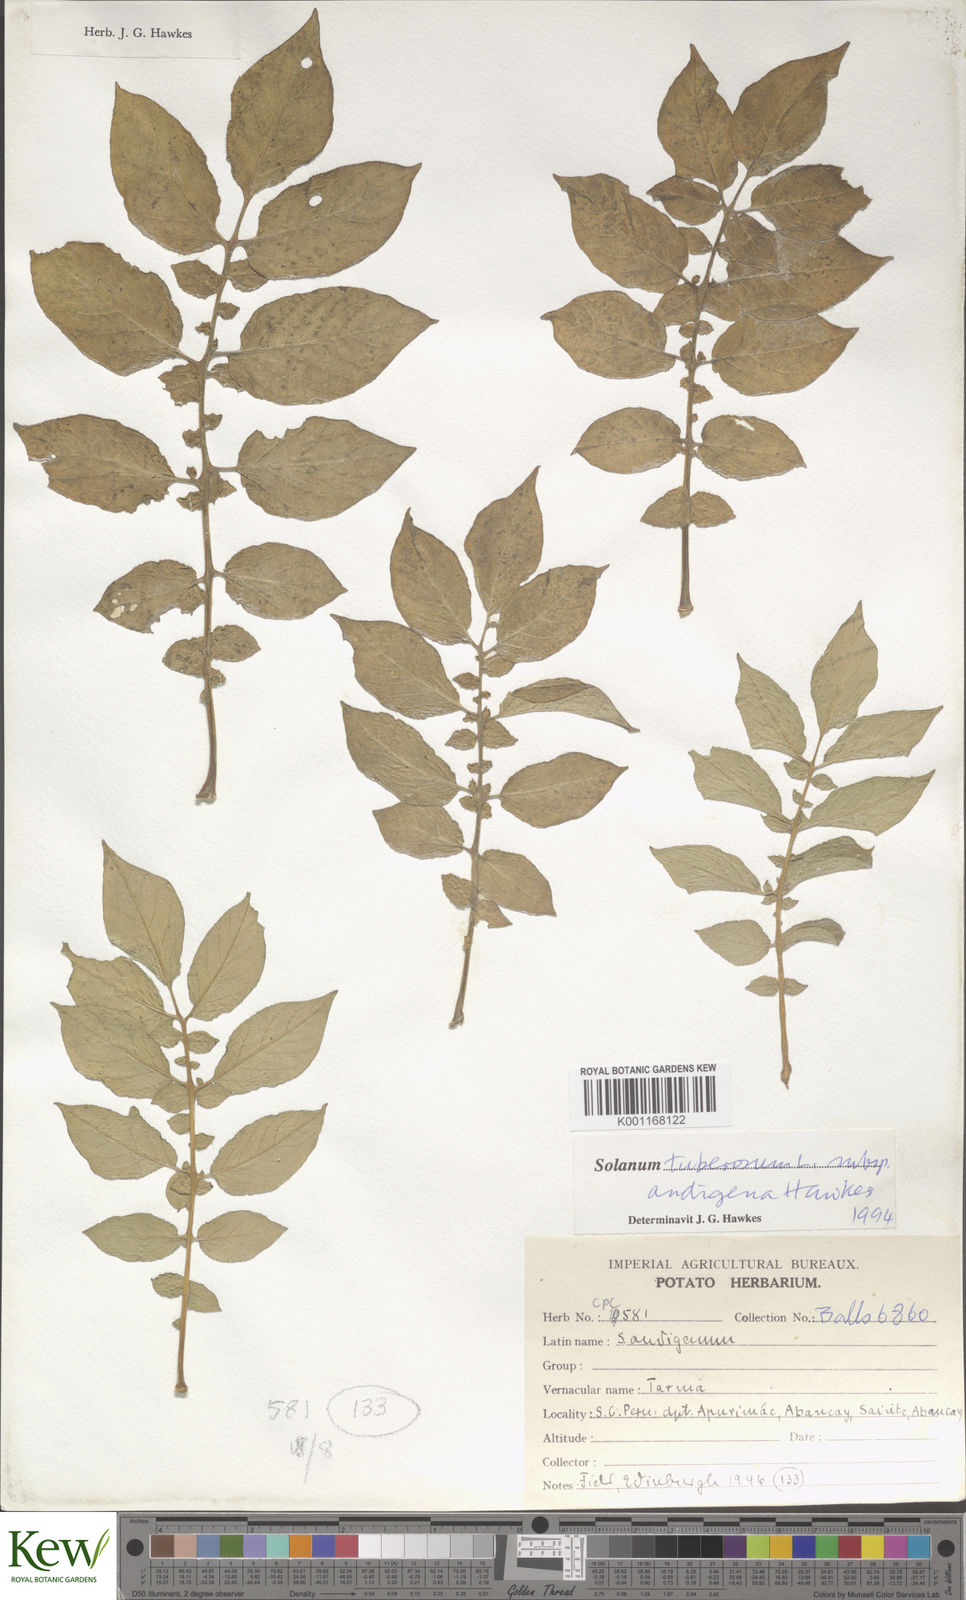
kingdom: Plantae
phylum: Tracheophyta
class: Magnoliopsida
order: Solanales
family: Solanaceae
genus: Solanum
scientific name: Solanum tuberosum
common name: Potato
